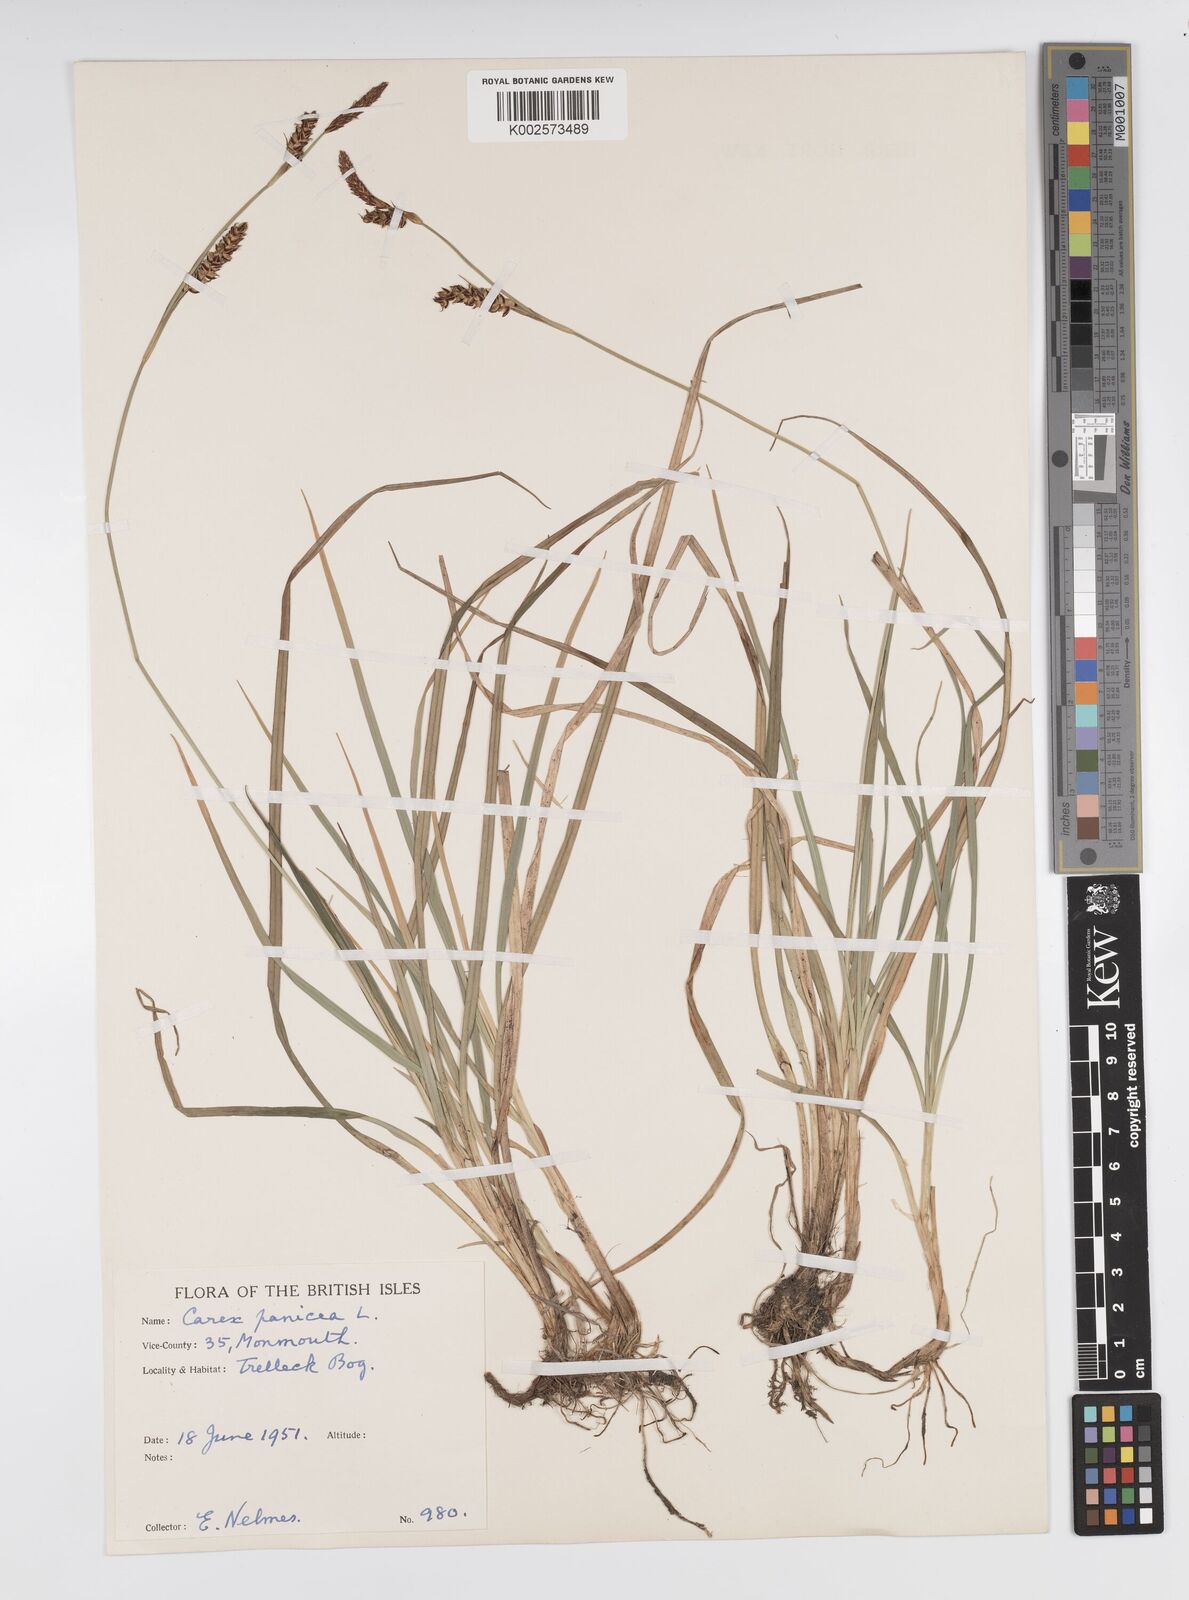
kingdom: Plantae
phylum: Tracheophyta
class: Liliopsida
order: Poales
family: Cyperaceae
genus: Carex
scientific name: Carex panicea
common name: Carnation sedge
